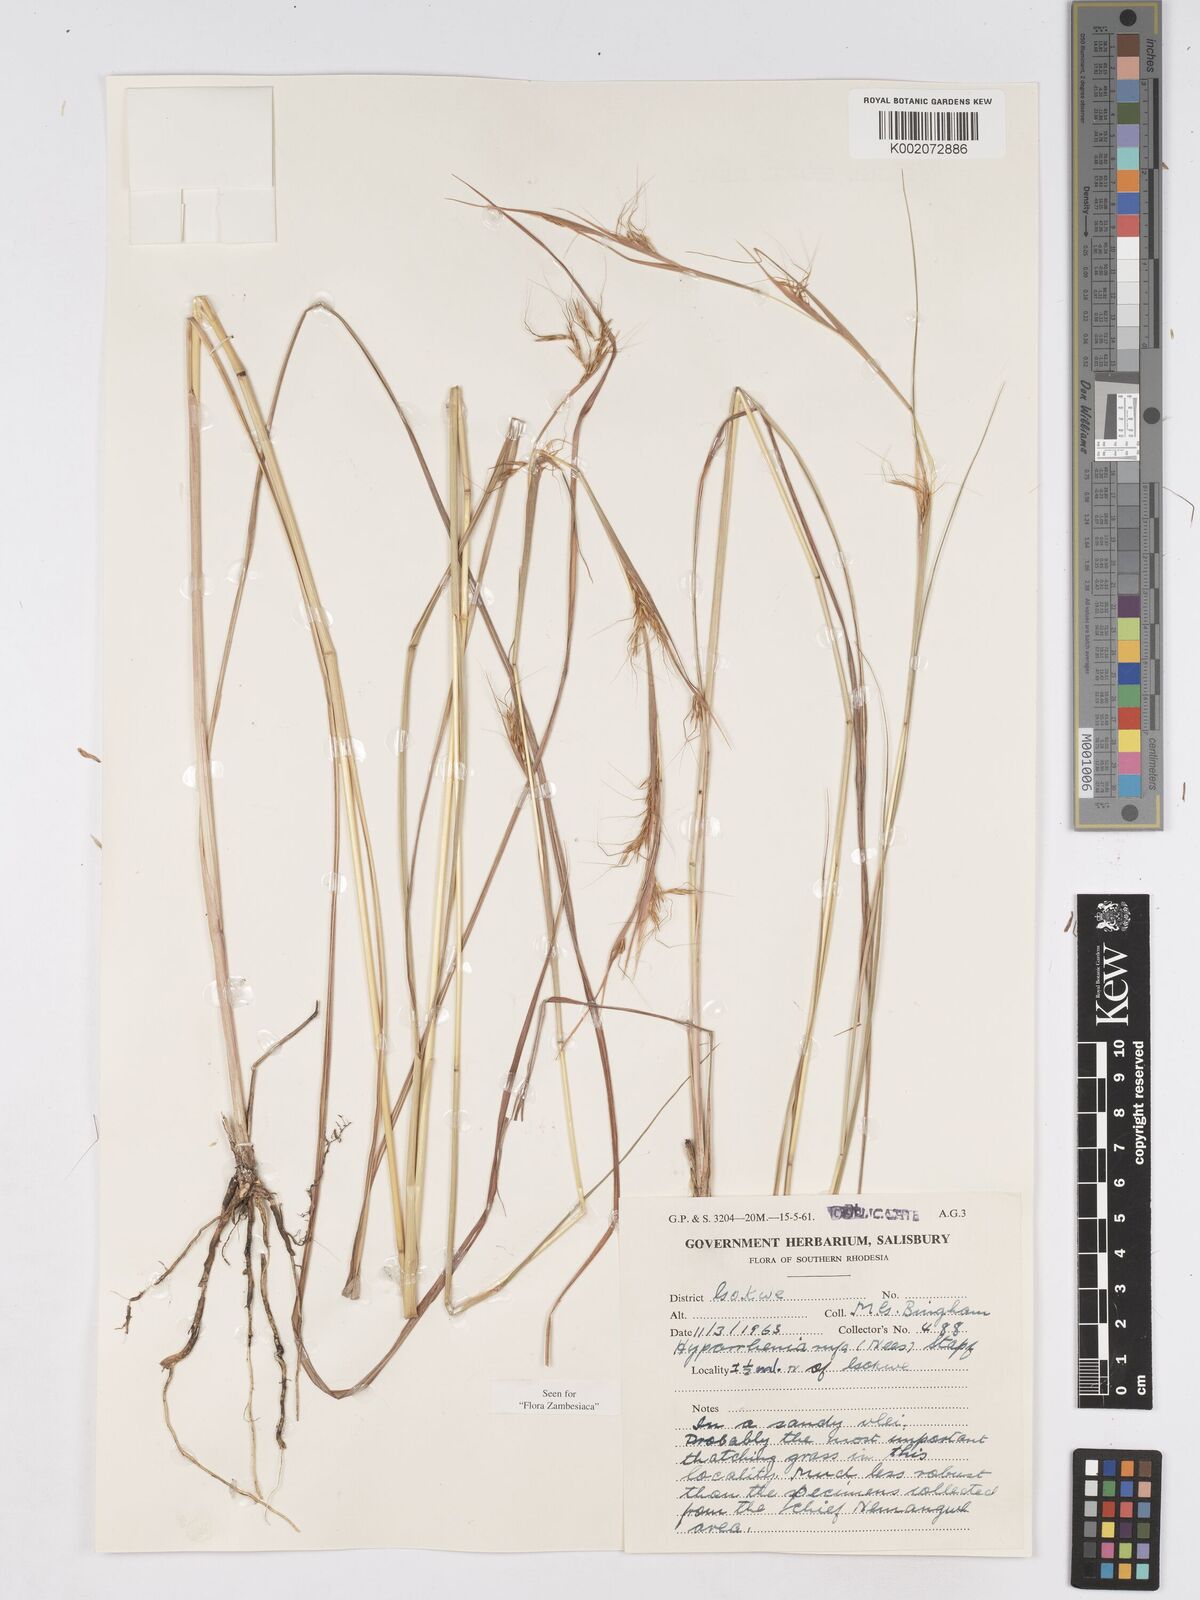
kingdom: Plantae
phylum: Tracheophyta
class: Liliopsida
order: Poales
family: Poaceae
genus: Hyparrhenia
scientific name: Hyparrhenia rufa
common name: Jaraguagrass
